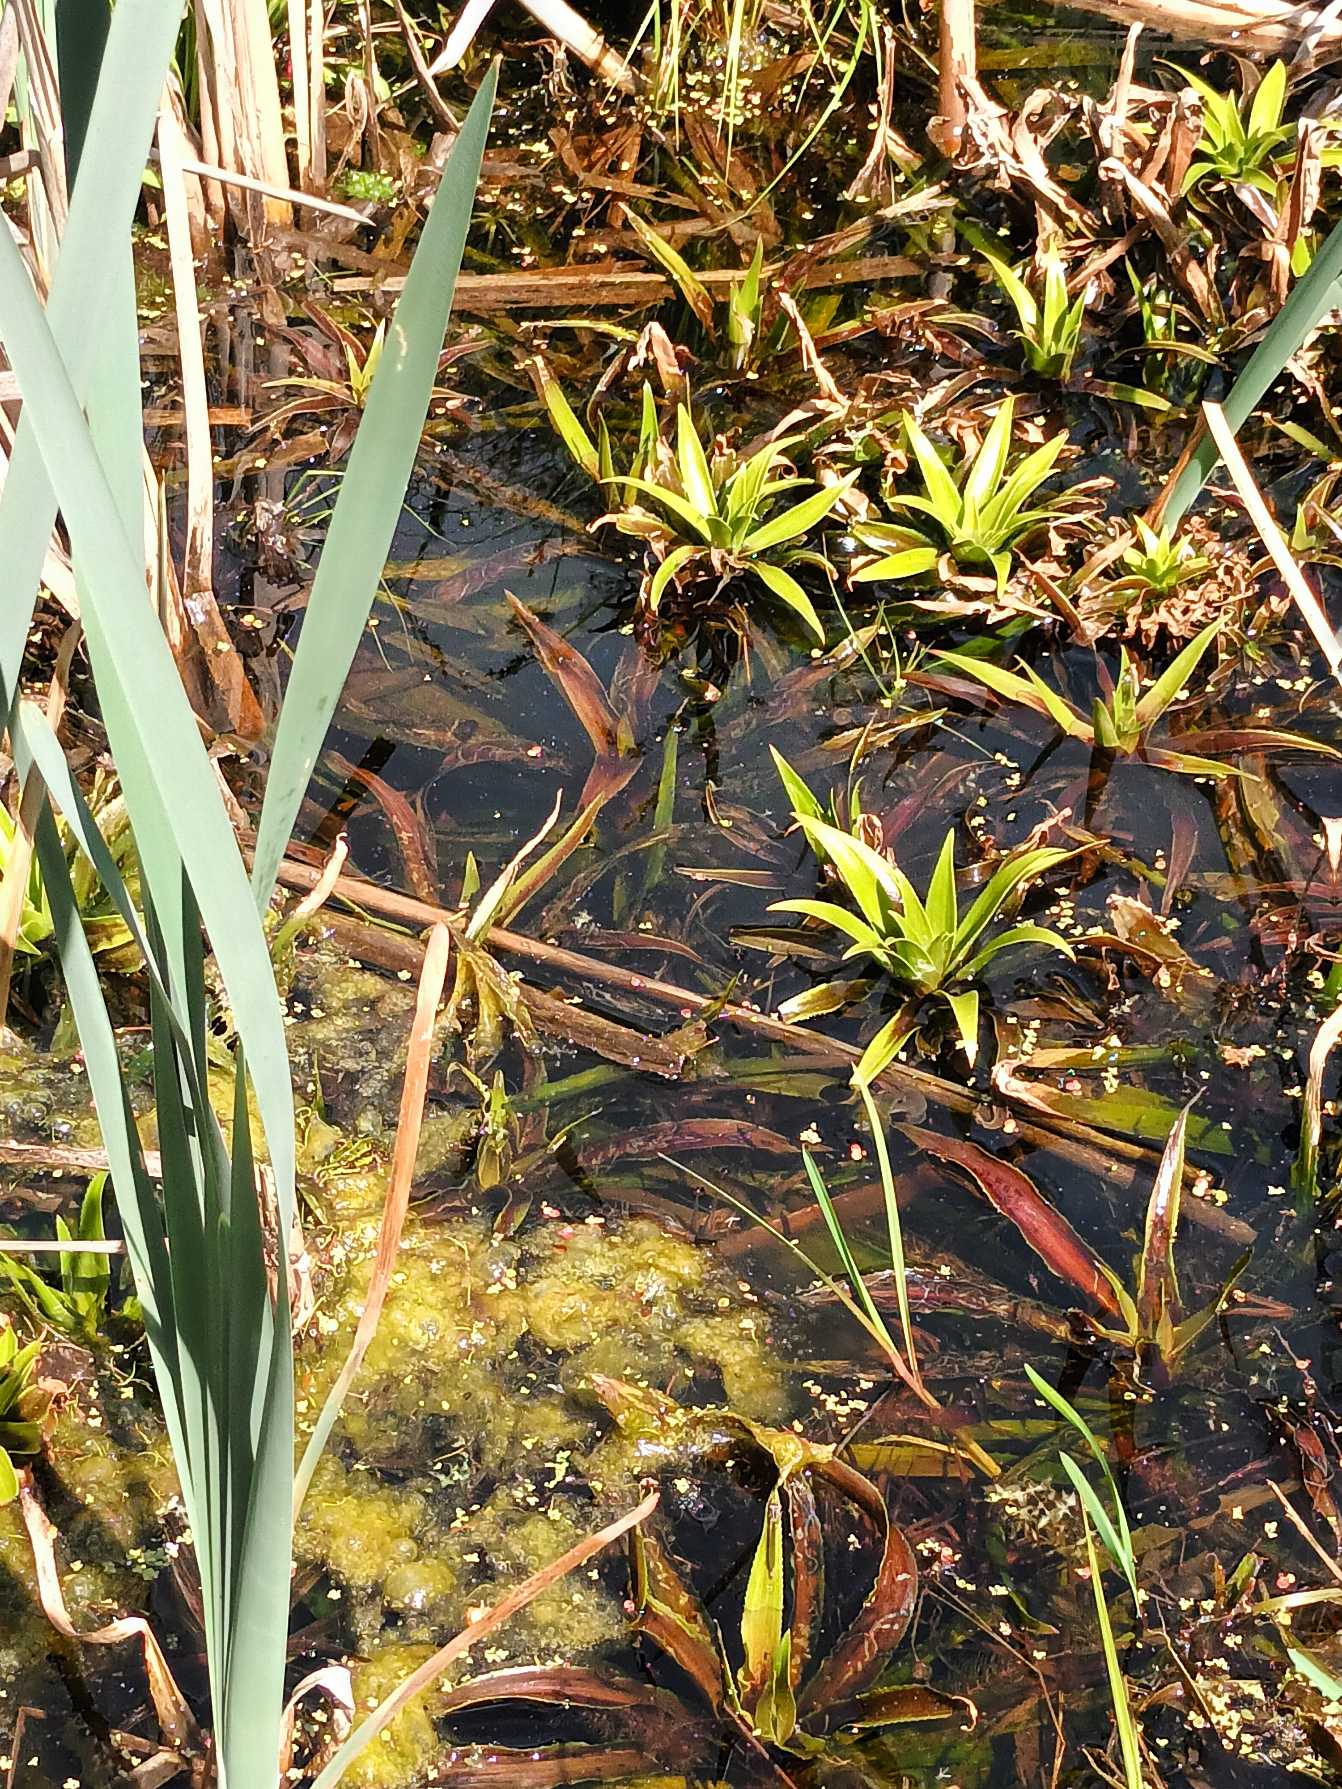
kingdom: Plantae
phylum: Tracheophyta
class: Liliopsida
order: Alismatales
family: Hydrocharitaceae
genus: Stratiotes
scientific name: Stratiotes aloides
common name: Krebseklo
